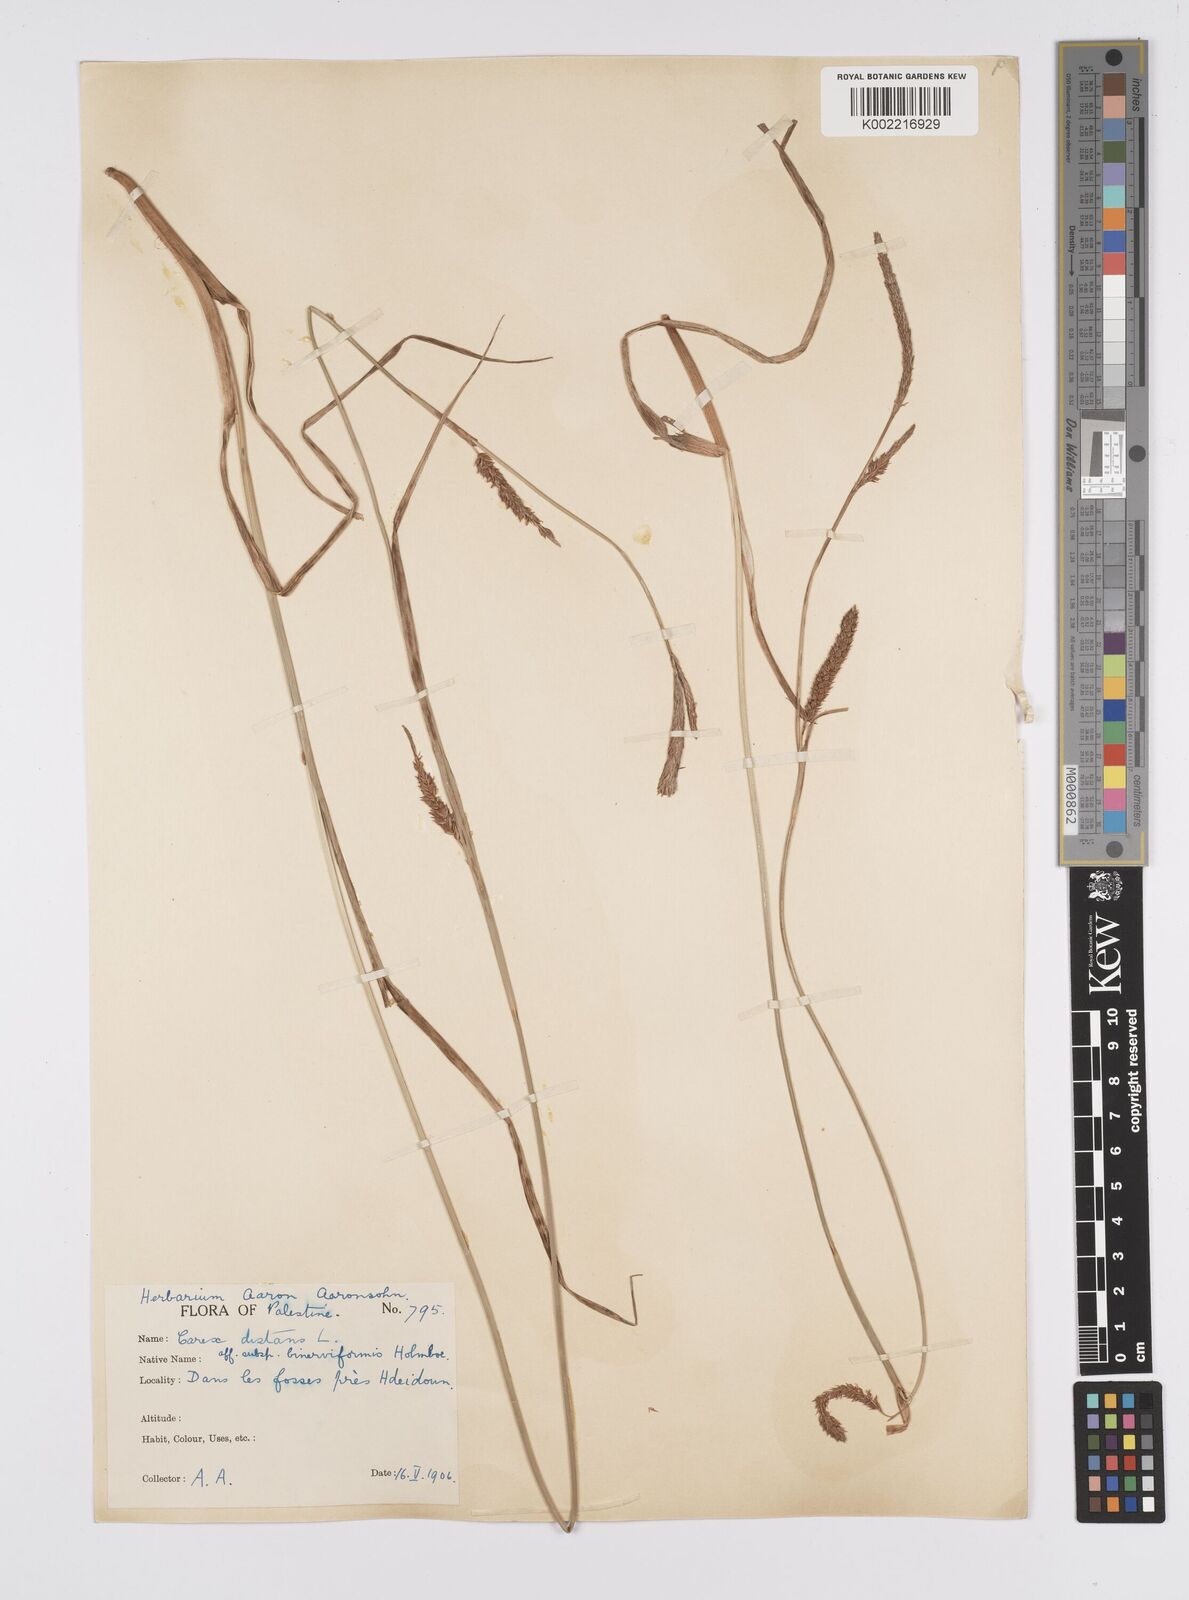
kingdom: Plantae
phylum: Tracheophyta
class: Liliopsida
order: Poales
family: Cyperaceae
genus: Carex
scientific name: Carex distans
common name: Distant sedge
